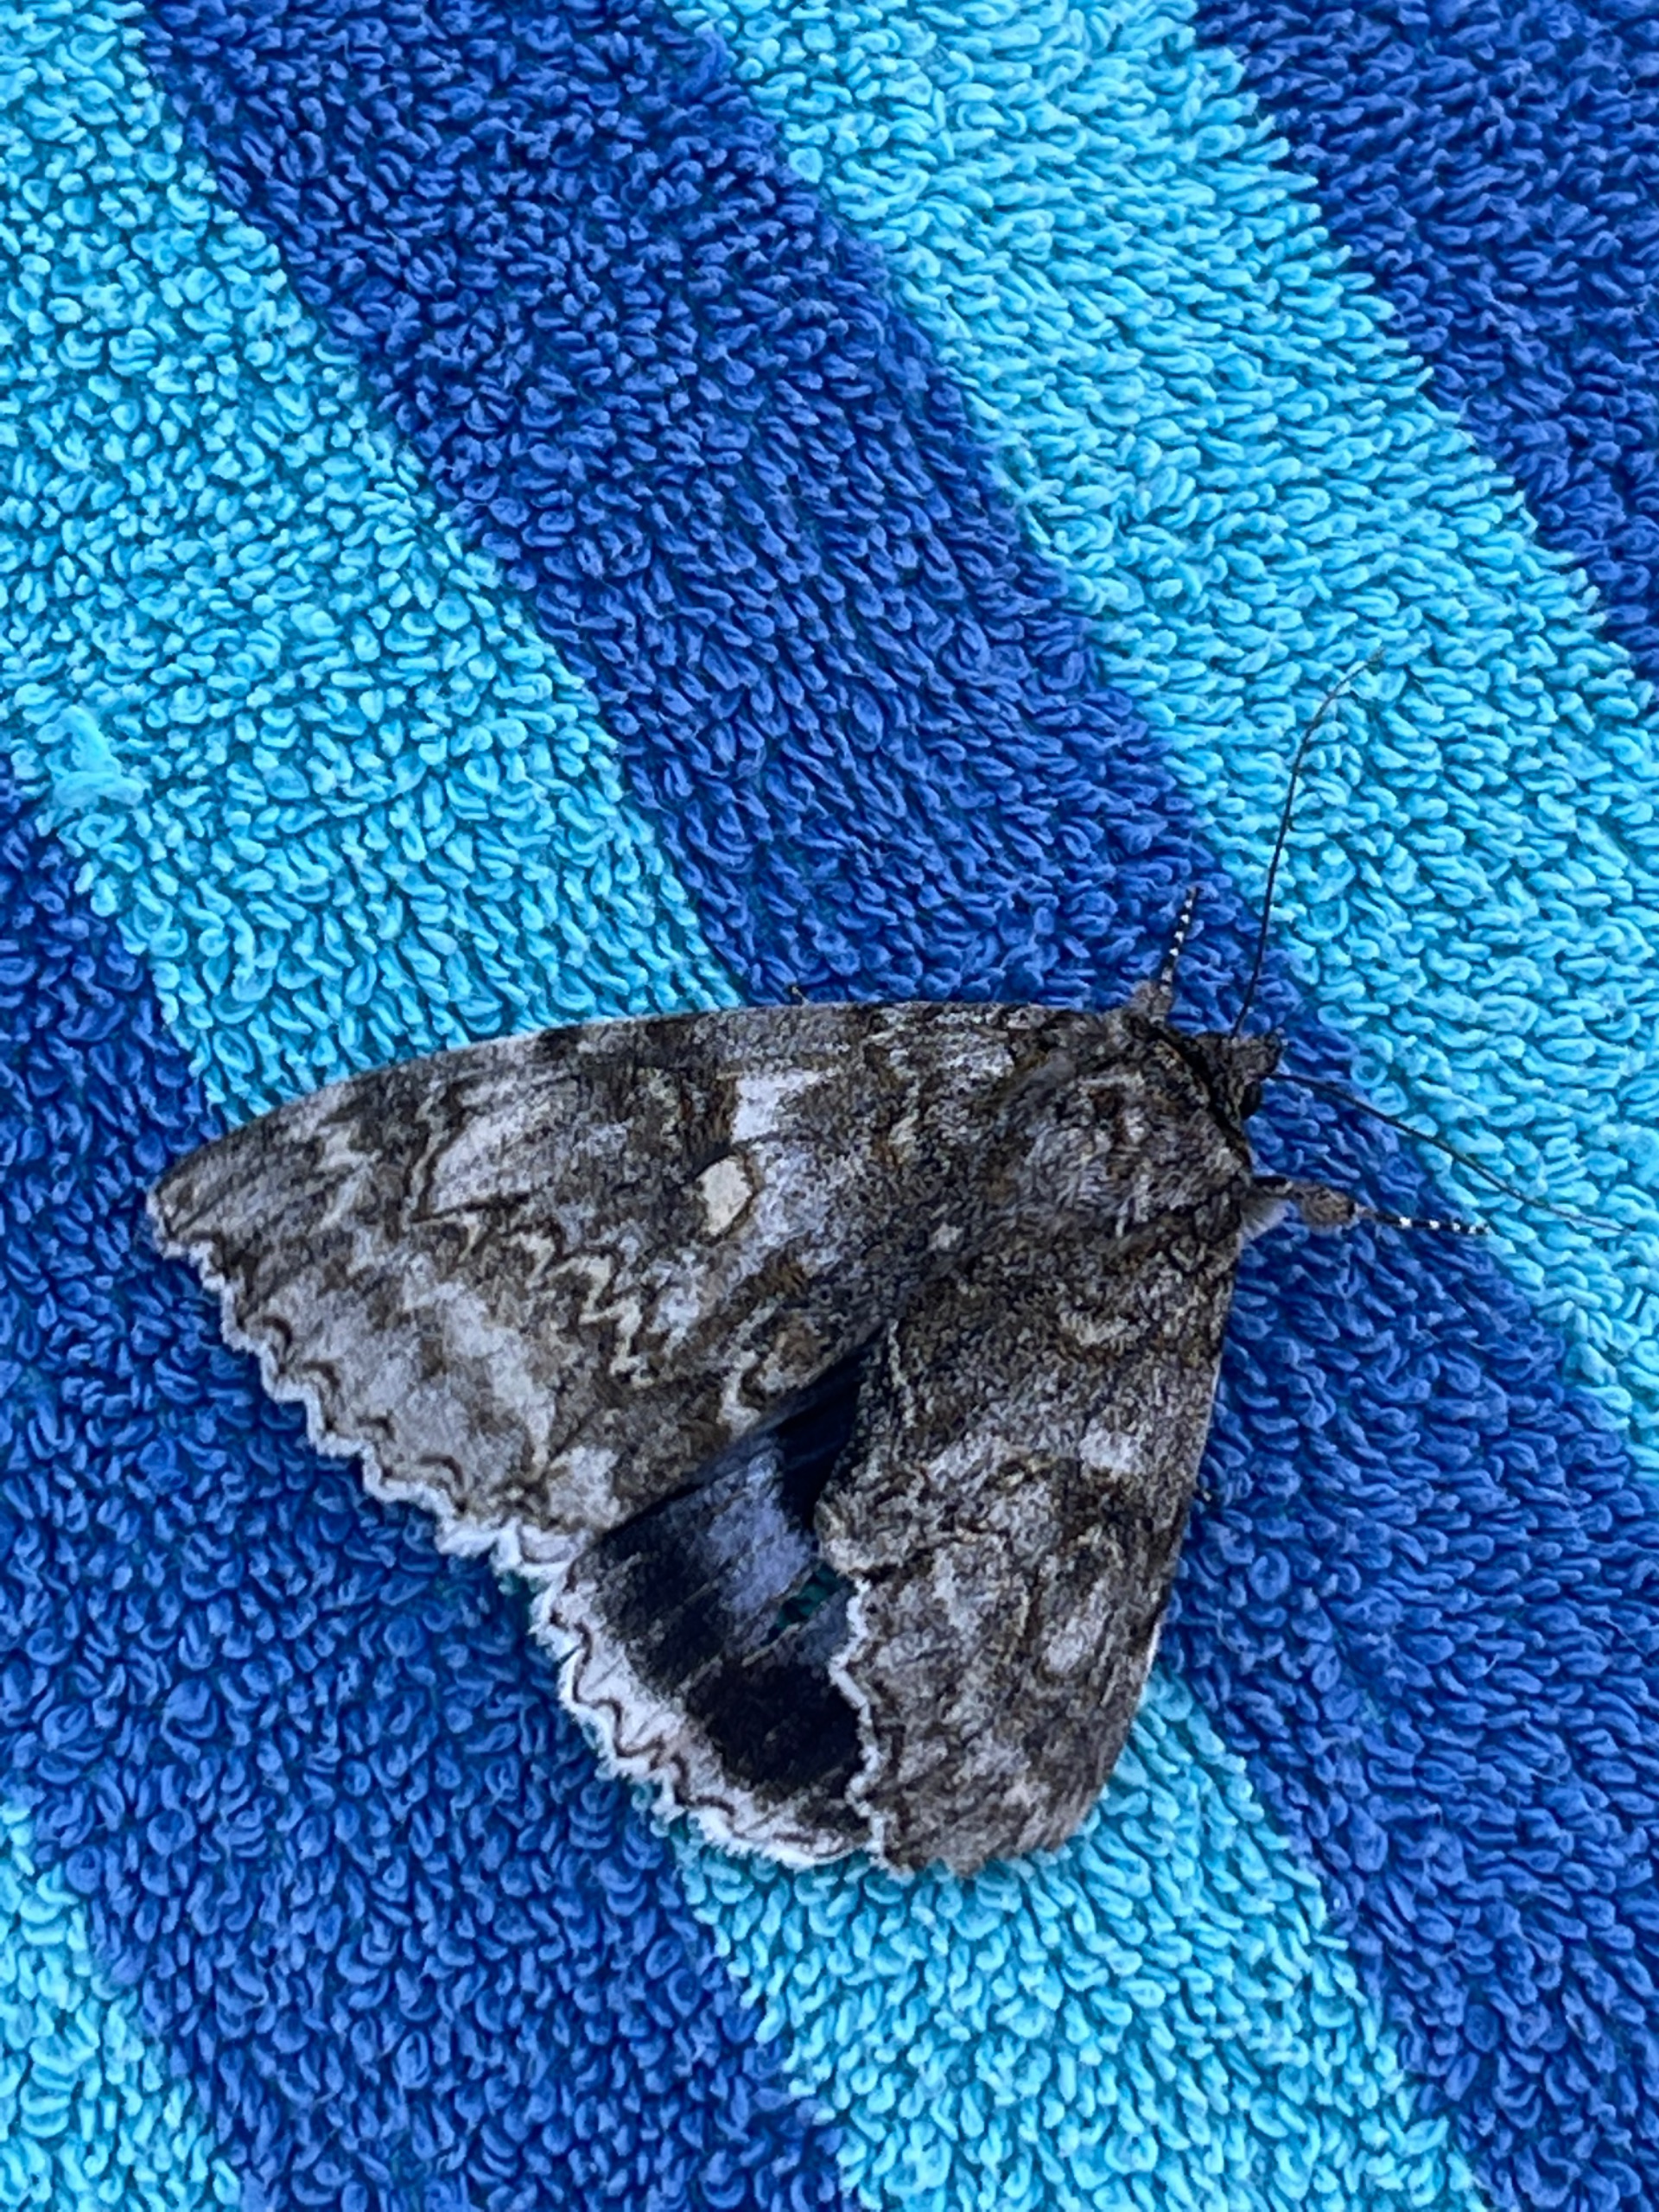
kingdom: Animalia
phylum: Arthropoda
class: Insecta
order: Lepidoptera
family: Erebidae
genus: Catocala
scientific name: Catocala fraxini
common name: Blåt ordensbånd
